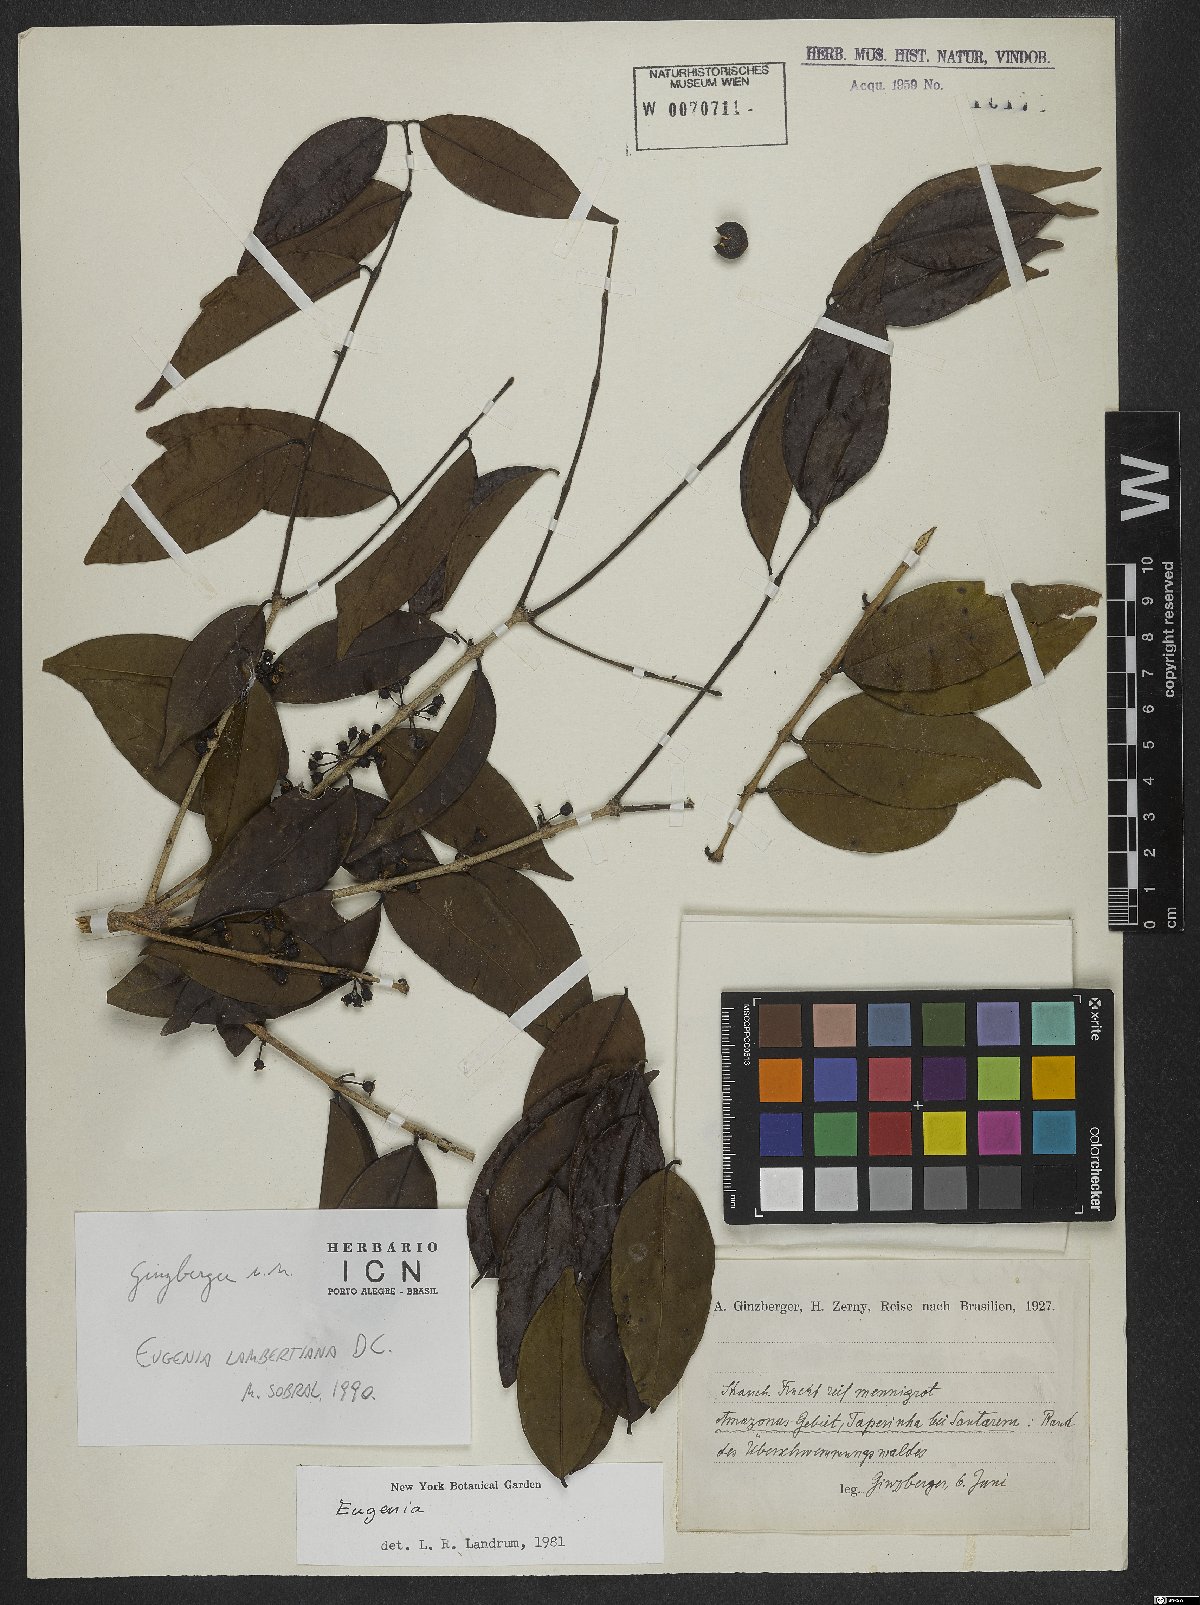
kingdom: Plantae
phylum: Tracheophyta
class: Magnoliopsida
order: Myrtales
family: Myrtaceae
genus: Eugenia
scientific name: Eugenia lambertiana
